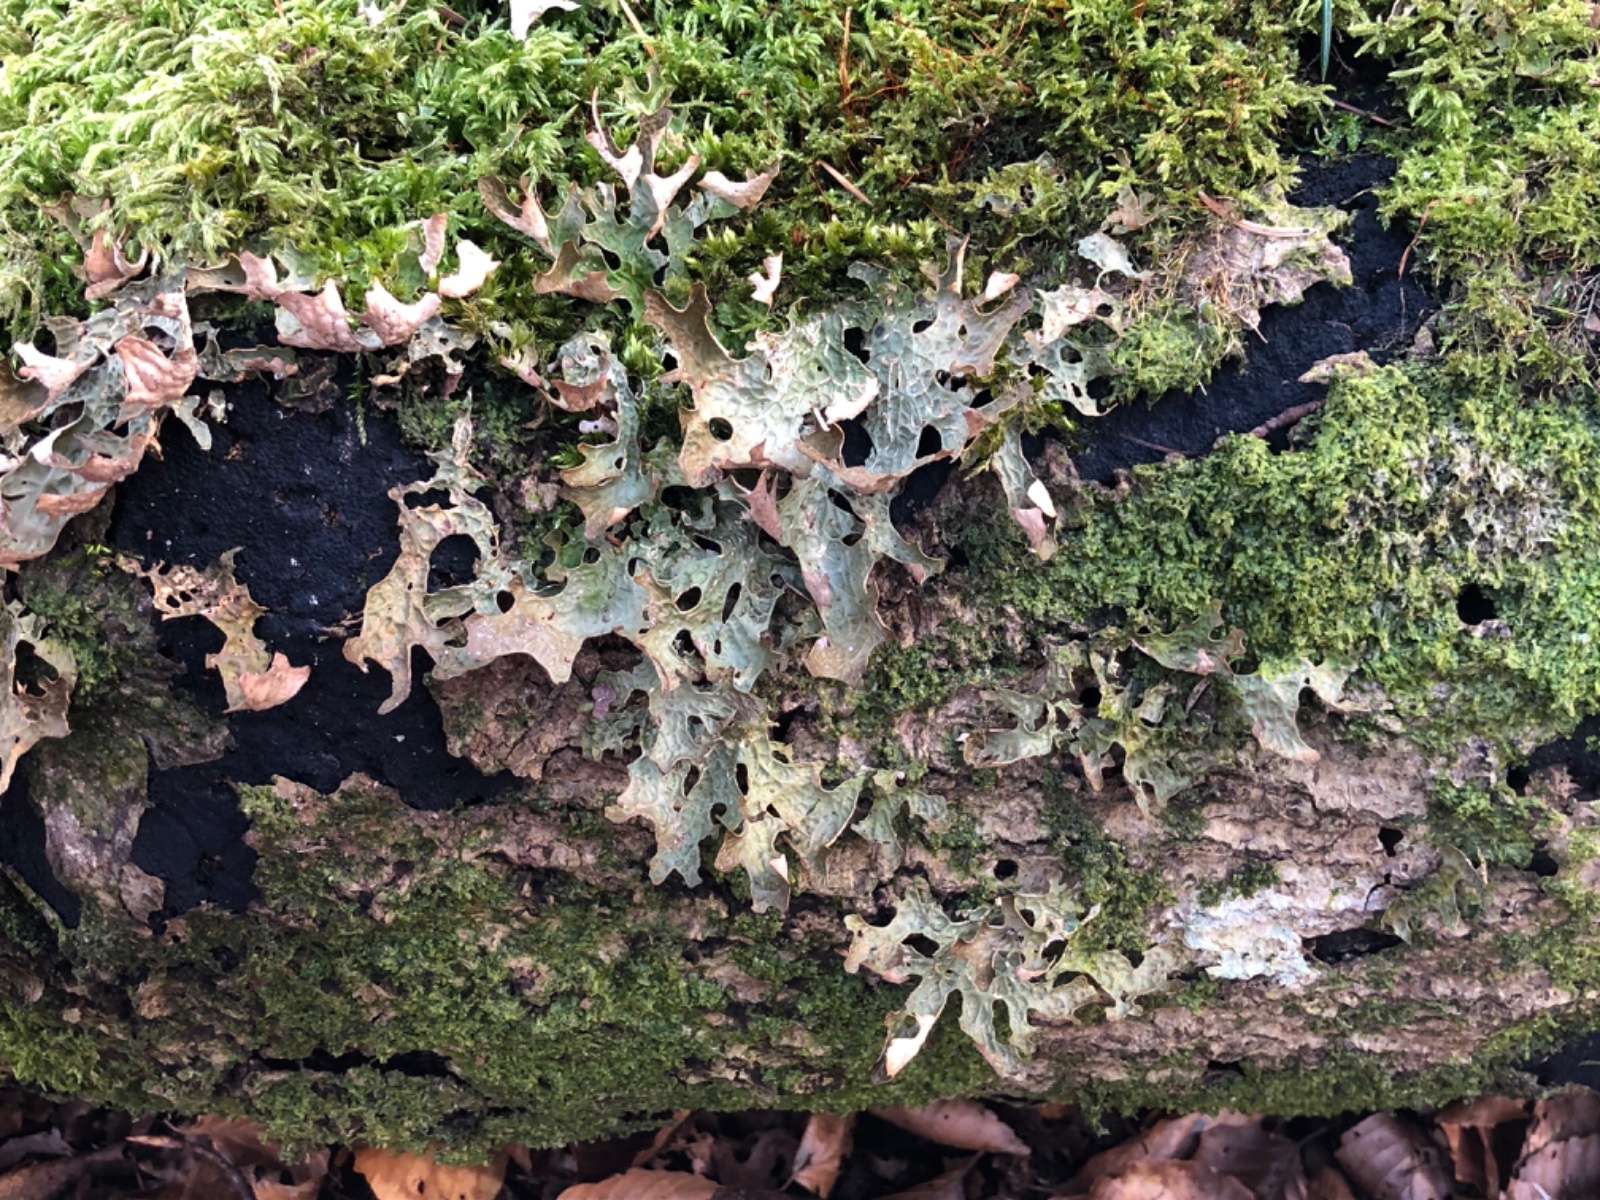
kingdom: Fungi
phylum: Ascomycota
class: Lecanoromycetes
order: Peltigerales
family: Lobariaceae
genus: Lobaria
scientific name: Lobaria pulmonaria
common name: almindelig lungelav
